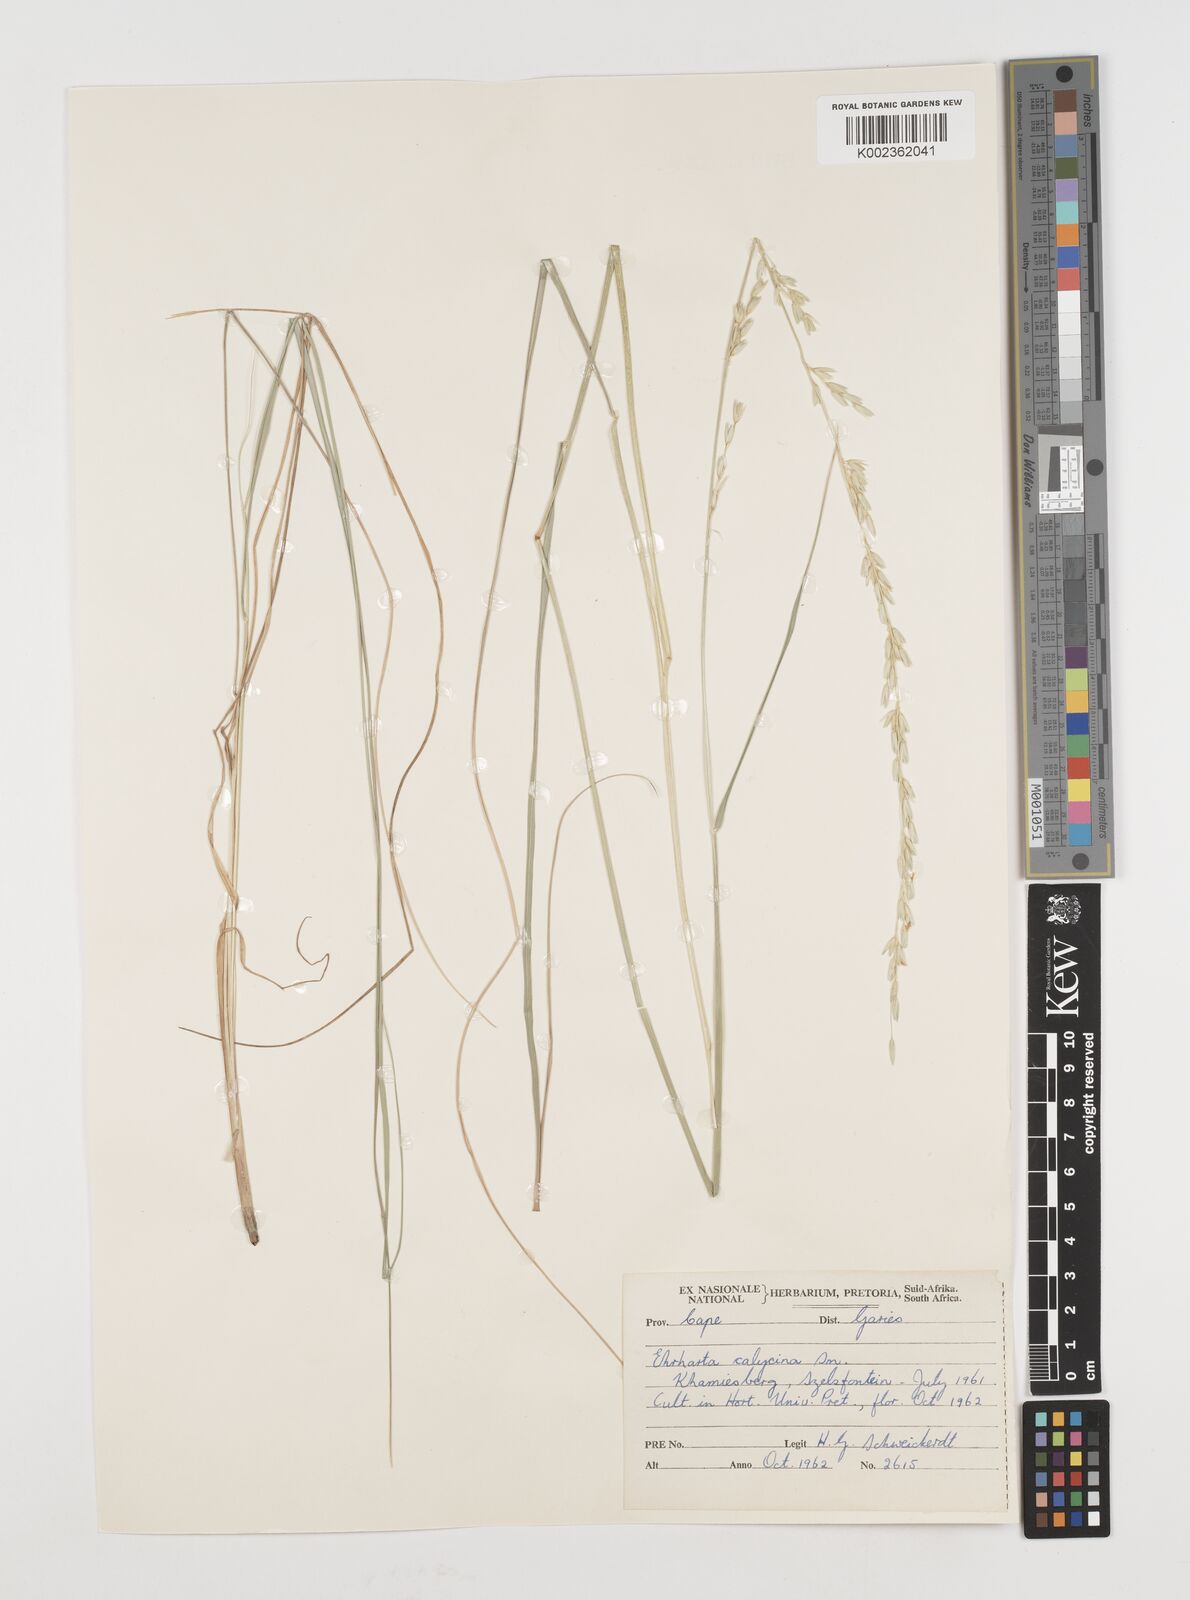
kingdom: Plantae
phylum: Tracheophyta
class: Liliopsida
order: Poales
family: Poaceae
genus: Ehrharta
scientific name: Ehrharta calycina
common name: Perennial veldtgrass
